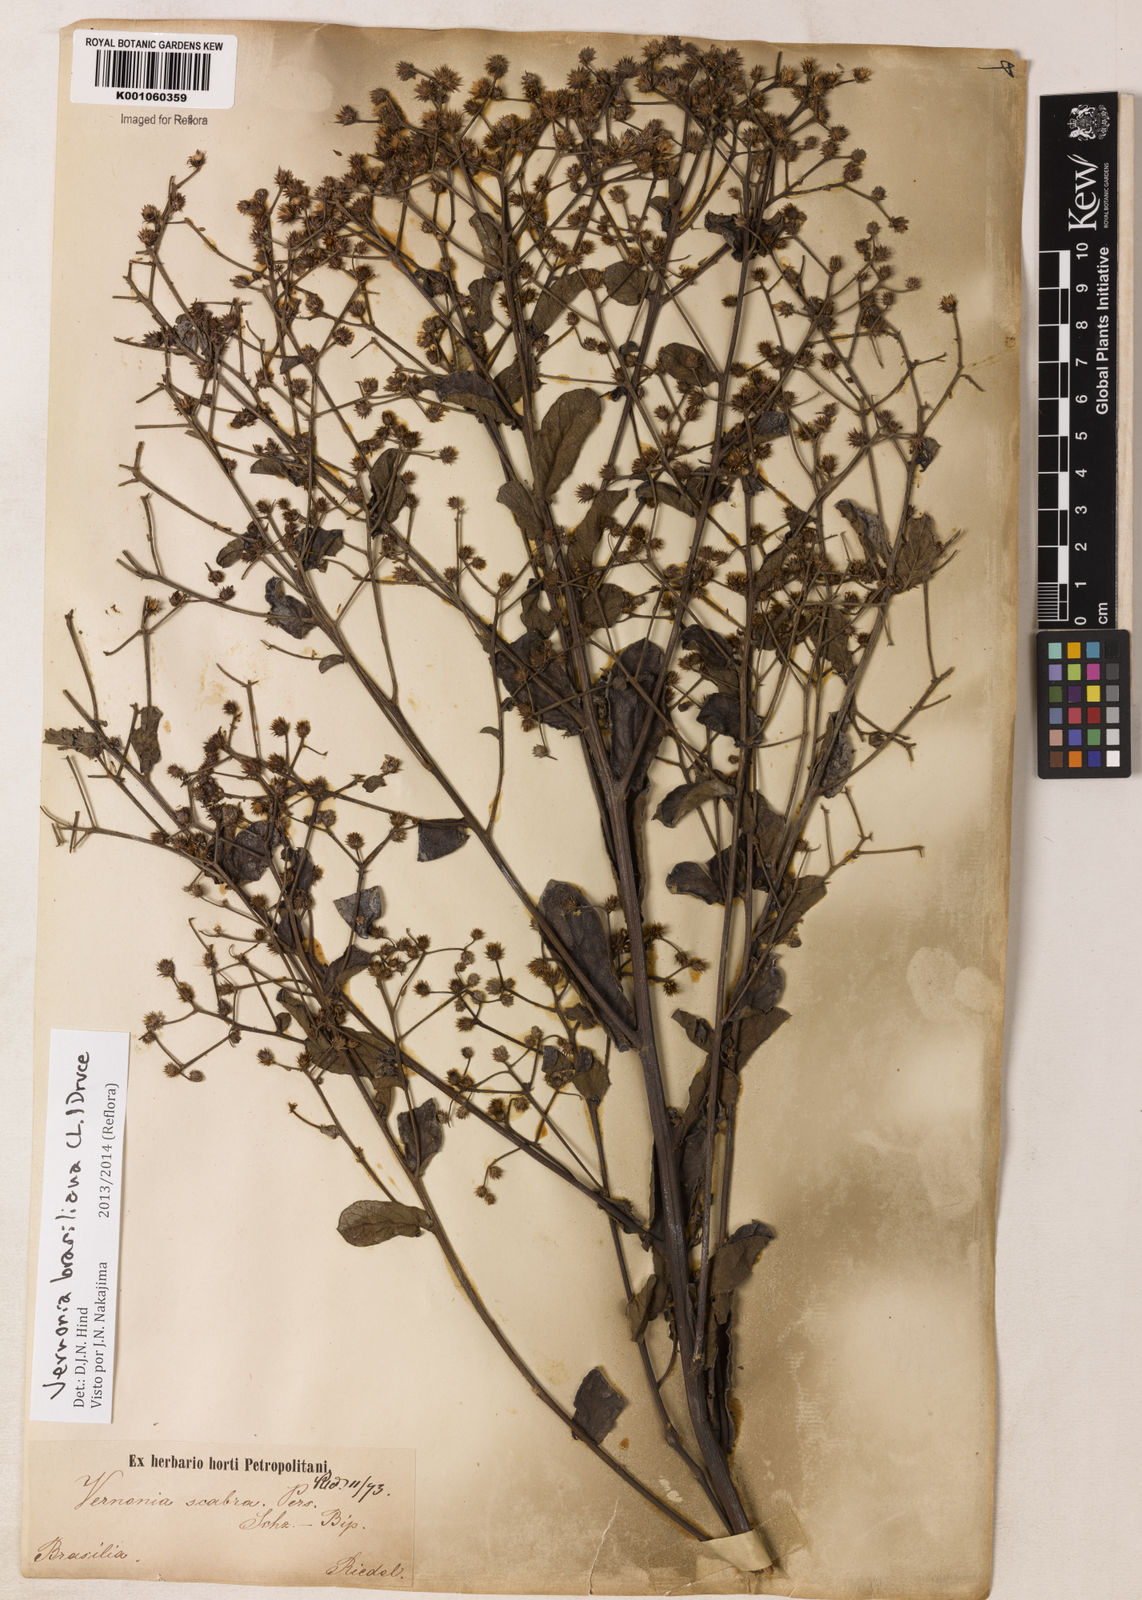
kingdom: Plantae
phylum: Tracheophyta
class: Magnoliopsida
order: Asterales
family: Asteraceae
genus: Vernonanthura
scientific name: Vernonanthura brasiliana
